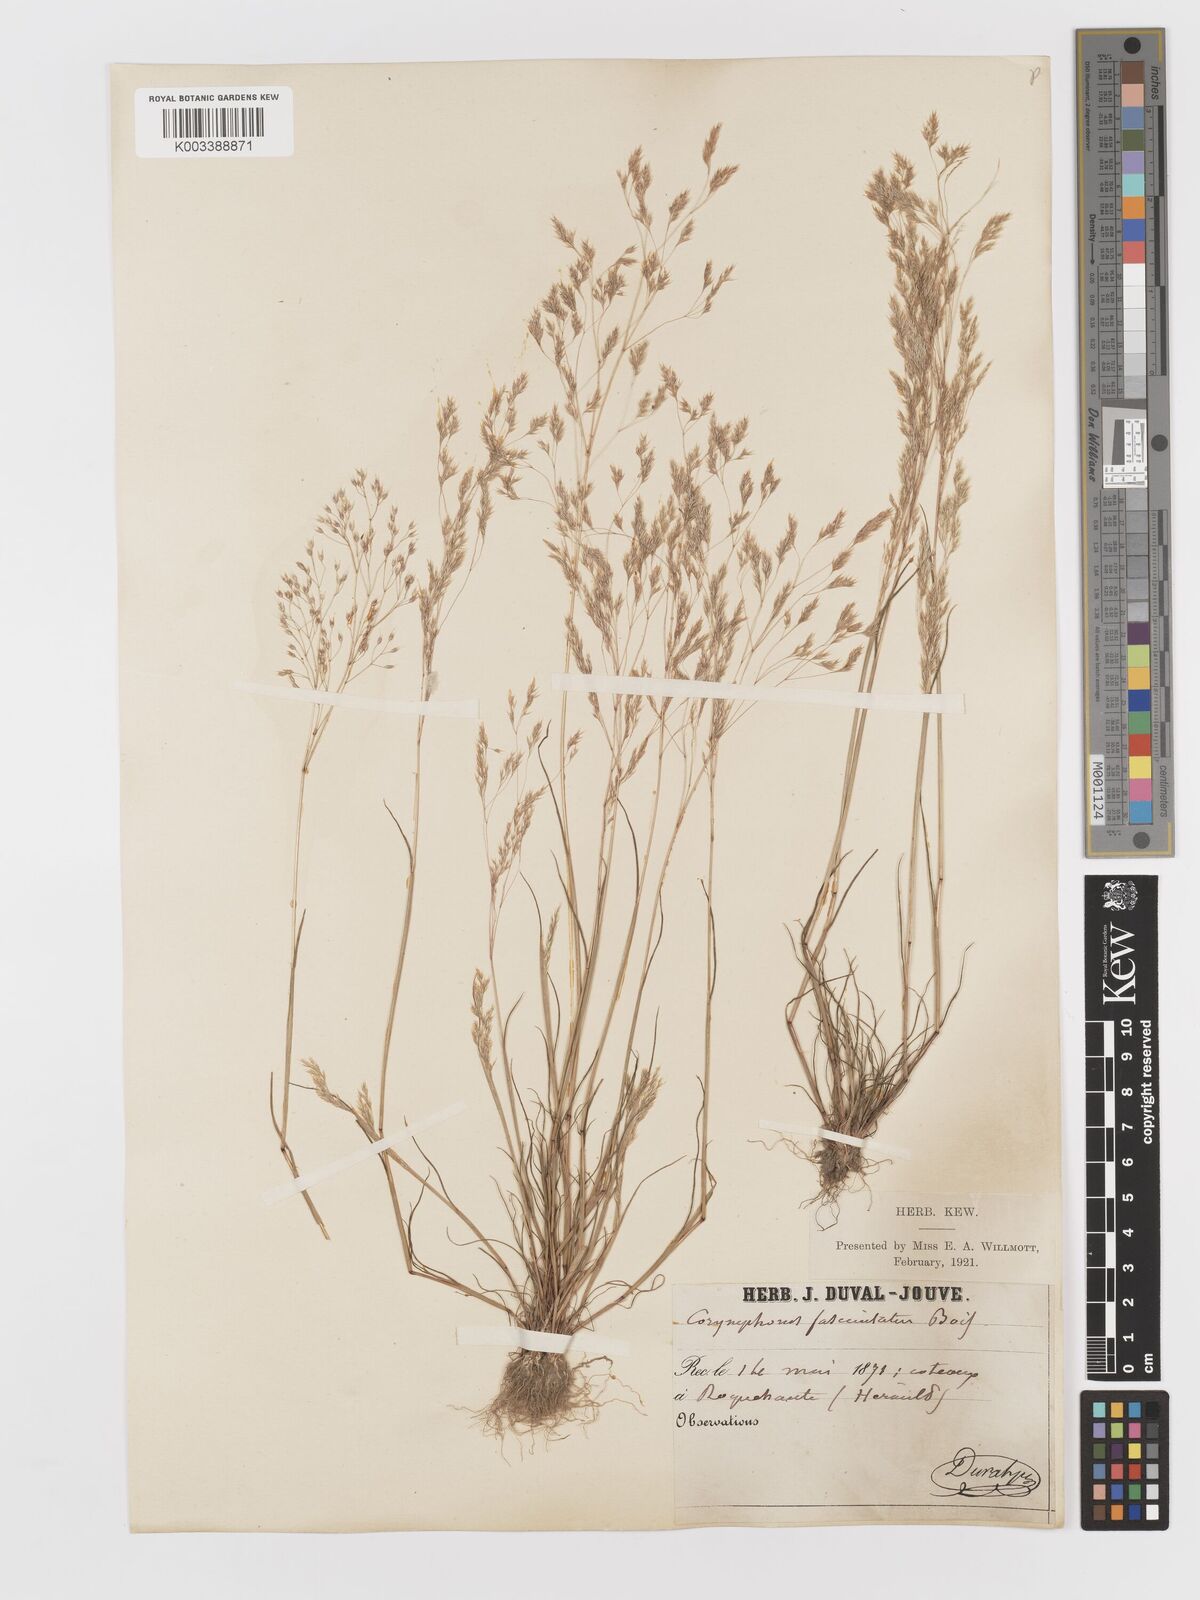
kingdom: Plantae
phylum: Tracheophyta
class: Liliopsida
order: Poales
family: Poaceae
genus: Corynephorus
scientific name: Corynephorus fasciculatus
